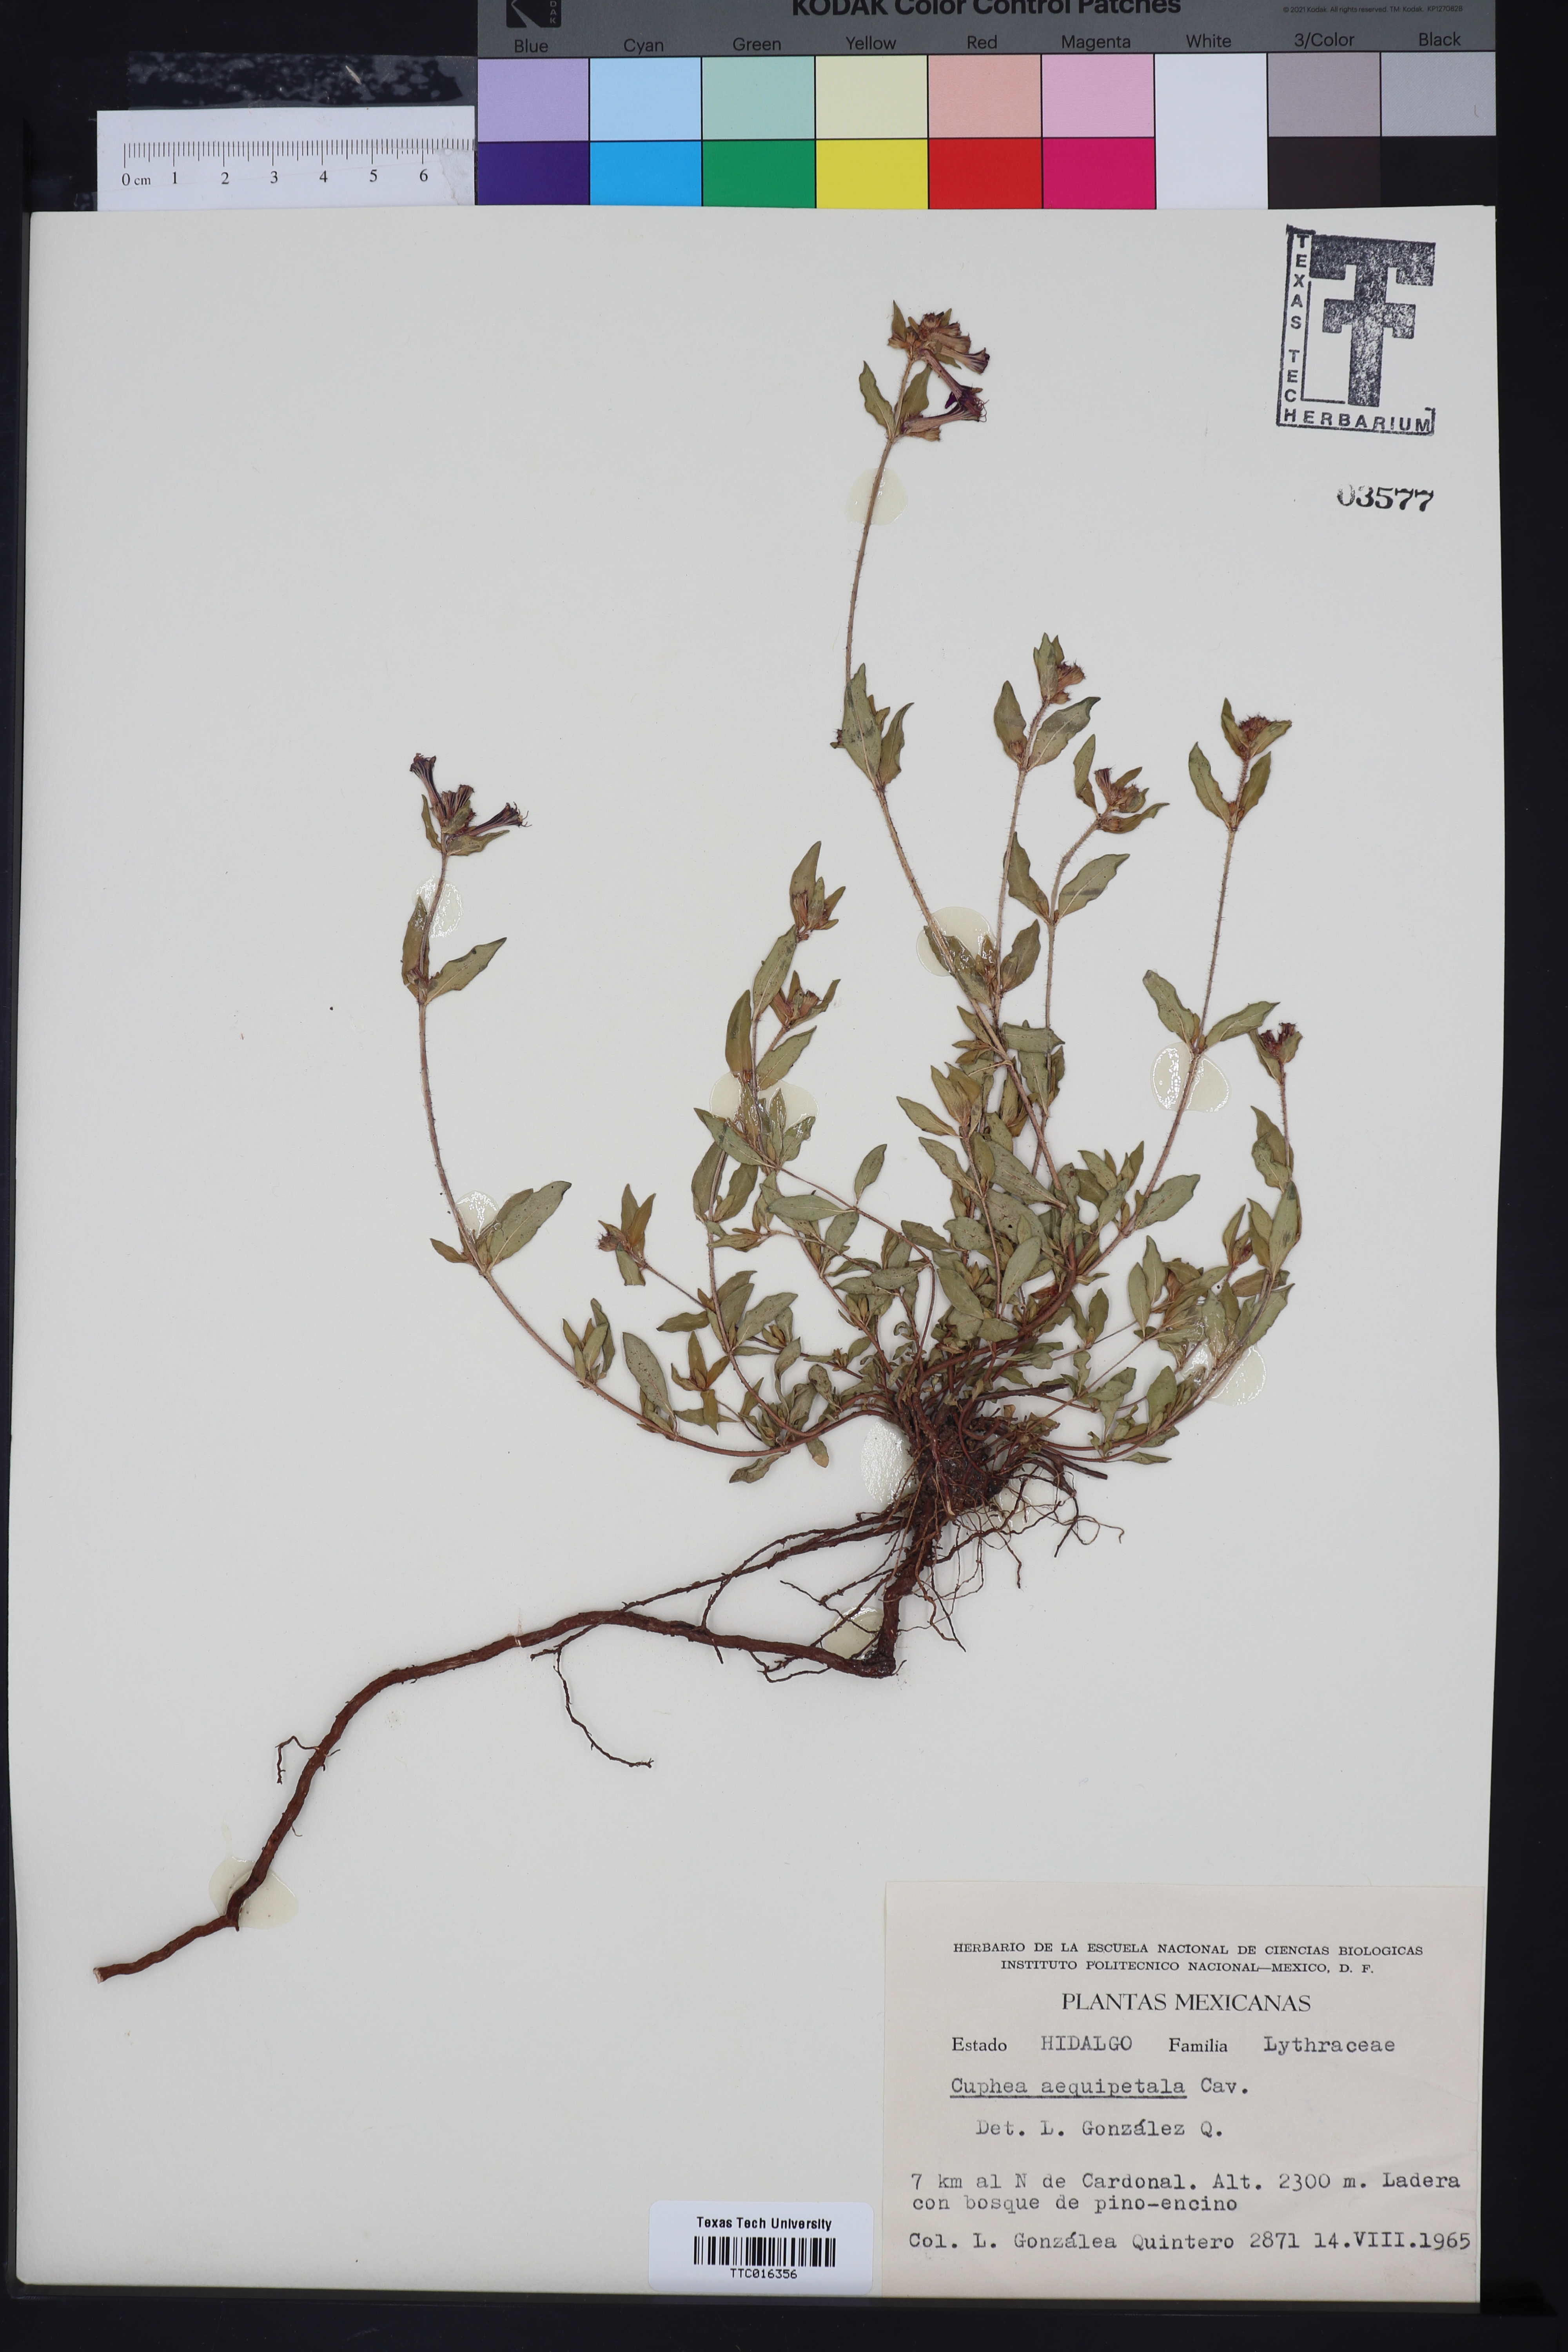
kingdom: Plantae
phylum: Tracheophyta
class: Magnoliopsida
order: Myrtales
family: Lythraceae
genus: Cuphea
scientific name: Cuphea nitidula
